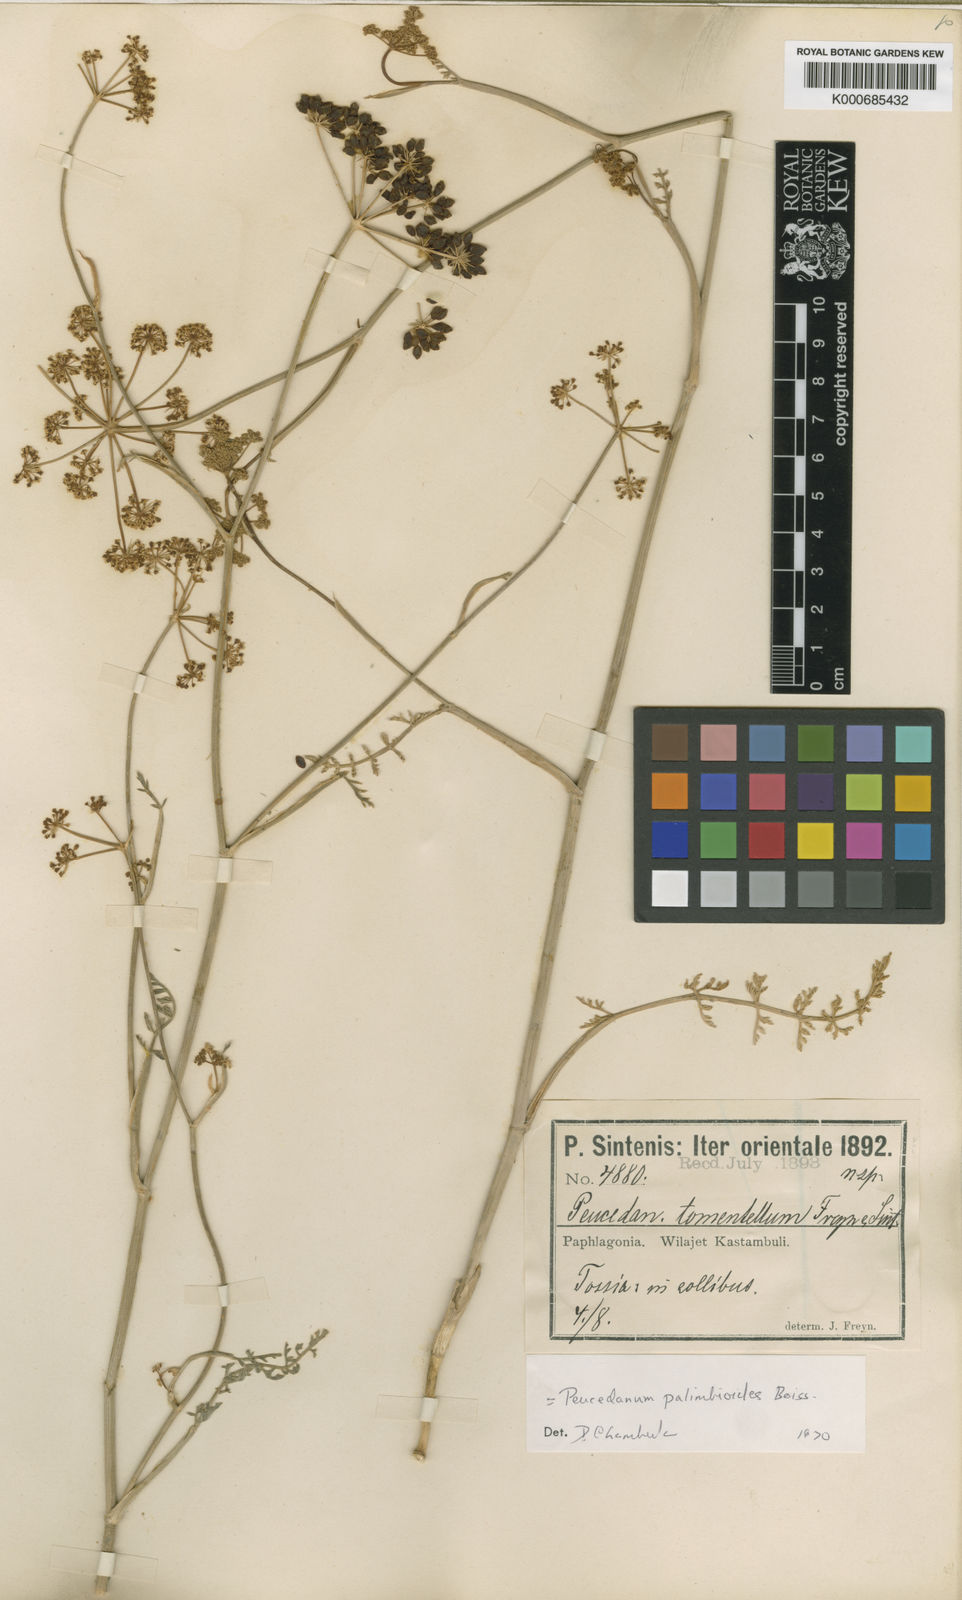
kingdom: Plantae
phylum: Tracheophyta
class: Magnoliopsida
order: Apiales
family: Apiaceae
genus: Dichoropetalum
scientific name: Dichoropetalum palimbioides
